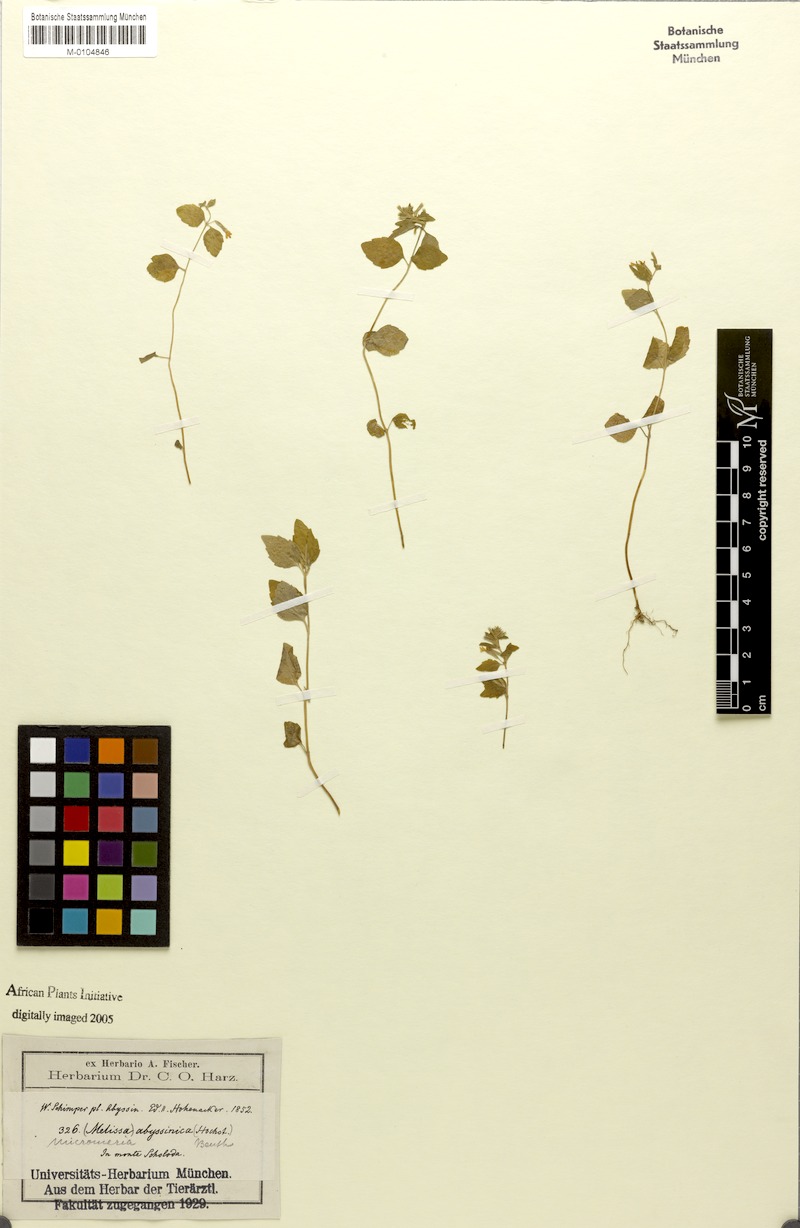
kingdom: Plantae
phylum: Tracheophyta
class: Magnoliopsida
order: Lamiales
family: Lamiaceae
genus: Clinopodium
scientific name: Clinopodium abyssinicum
